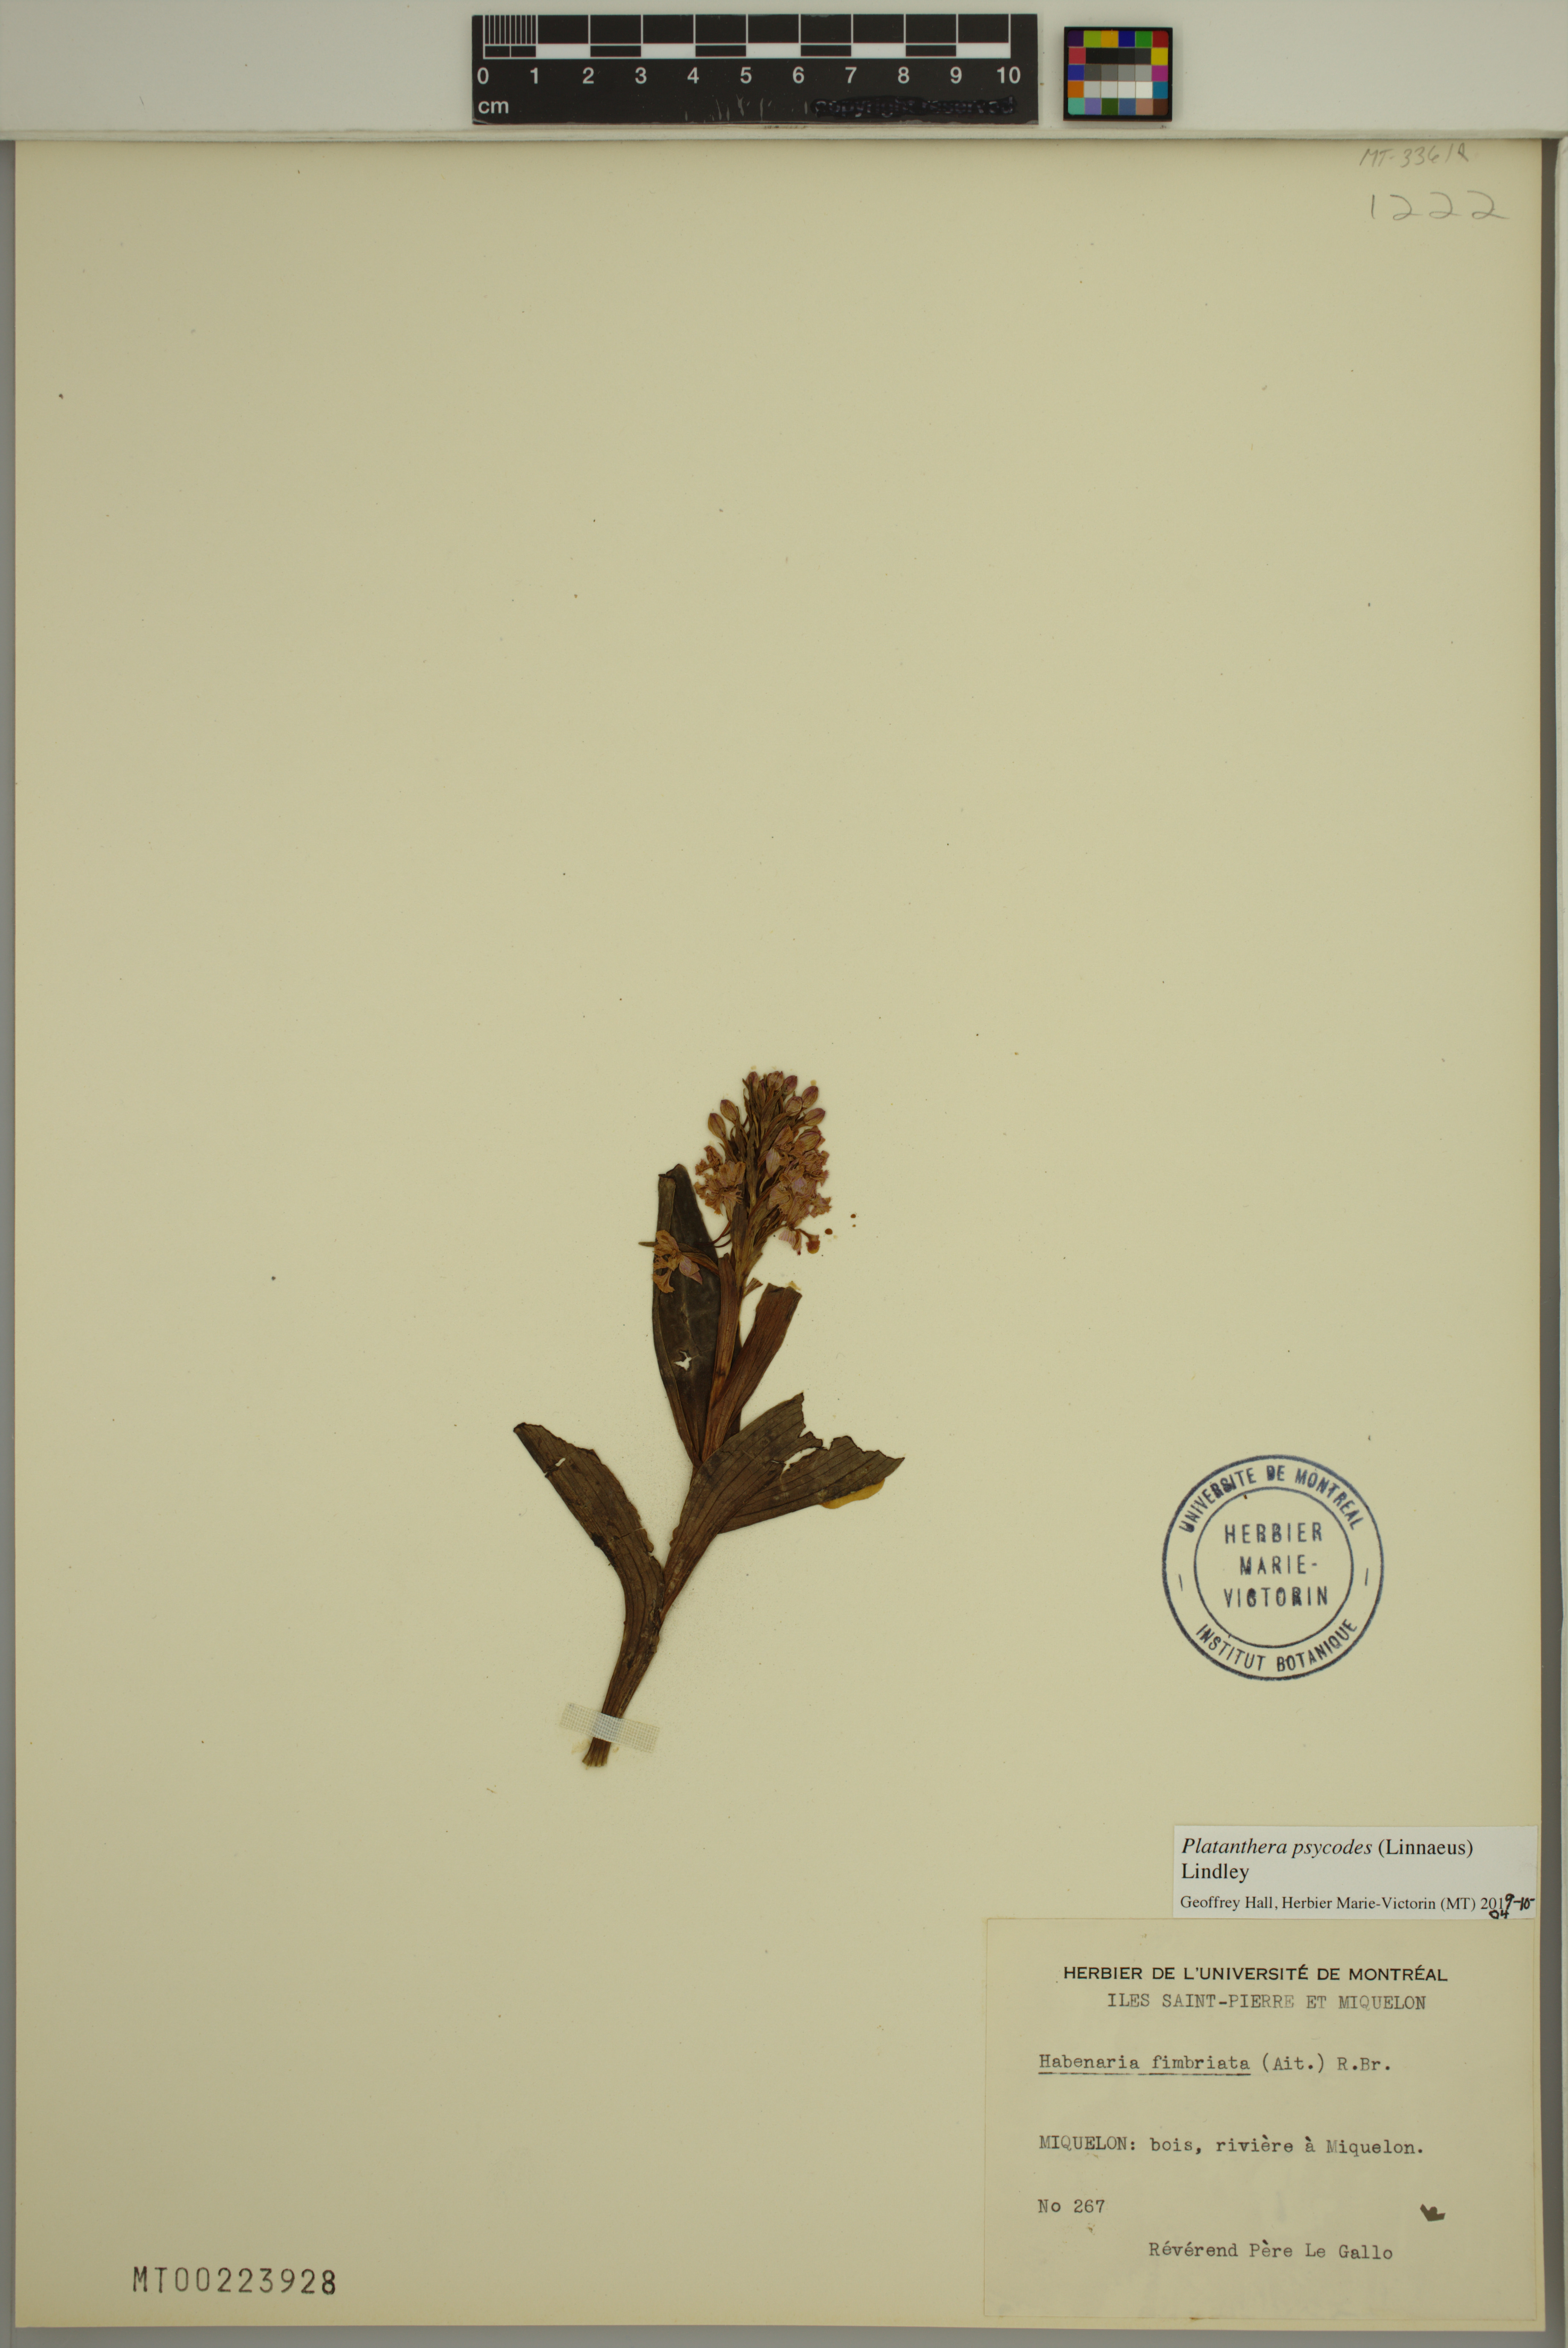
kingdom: Plantae
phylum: Tracheophyta
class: Liliopsida
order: Asparagales
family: Orchidaceae
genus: Platanthera
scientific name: Platanthera psycodes
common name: Lesser purple fringed orchid
